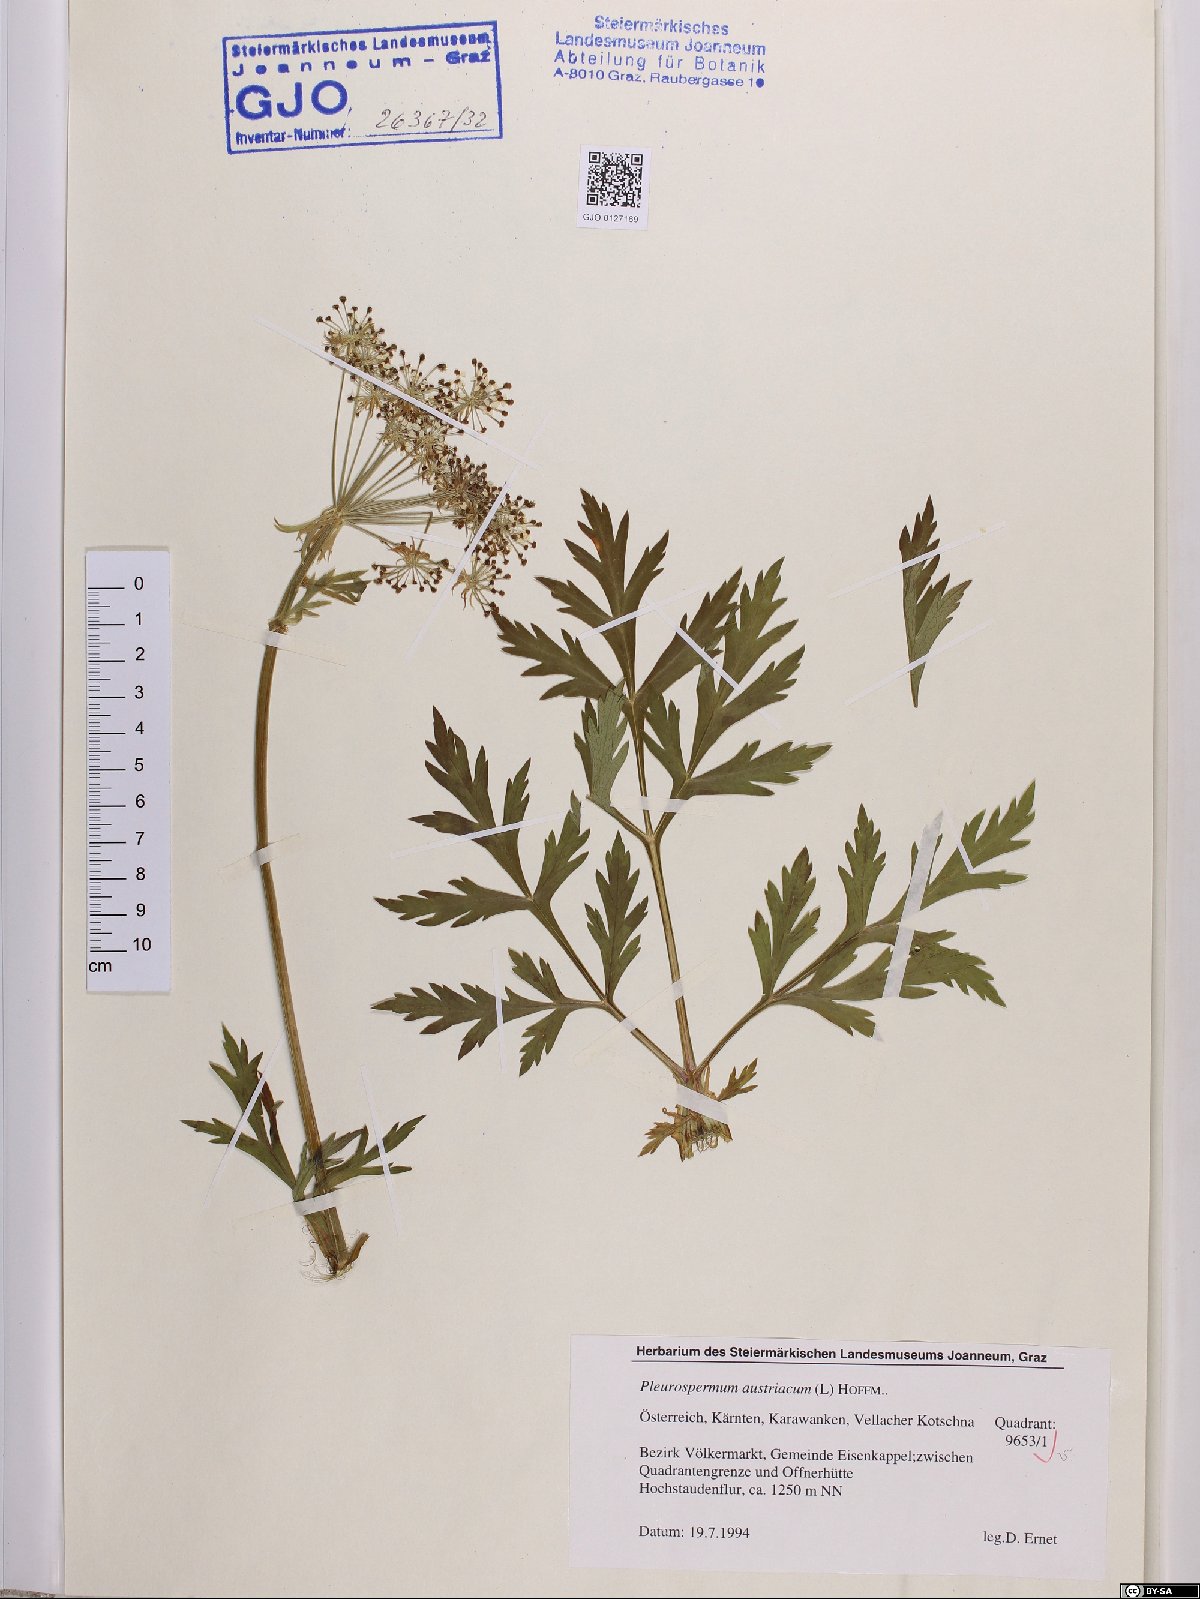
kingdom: Plantae
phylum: Tracheophyta
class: Magnoliopsida
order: Apiales
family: Apiaceae
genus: Pleurospermum
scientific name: Pleurospermum austriacum
